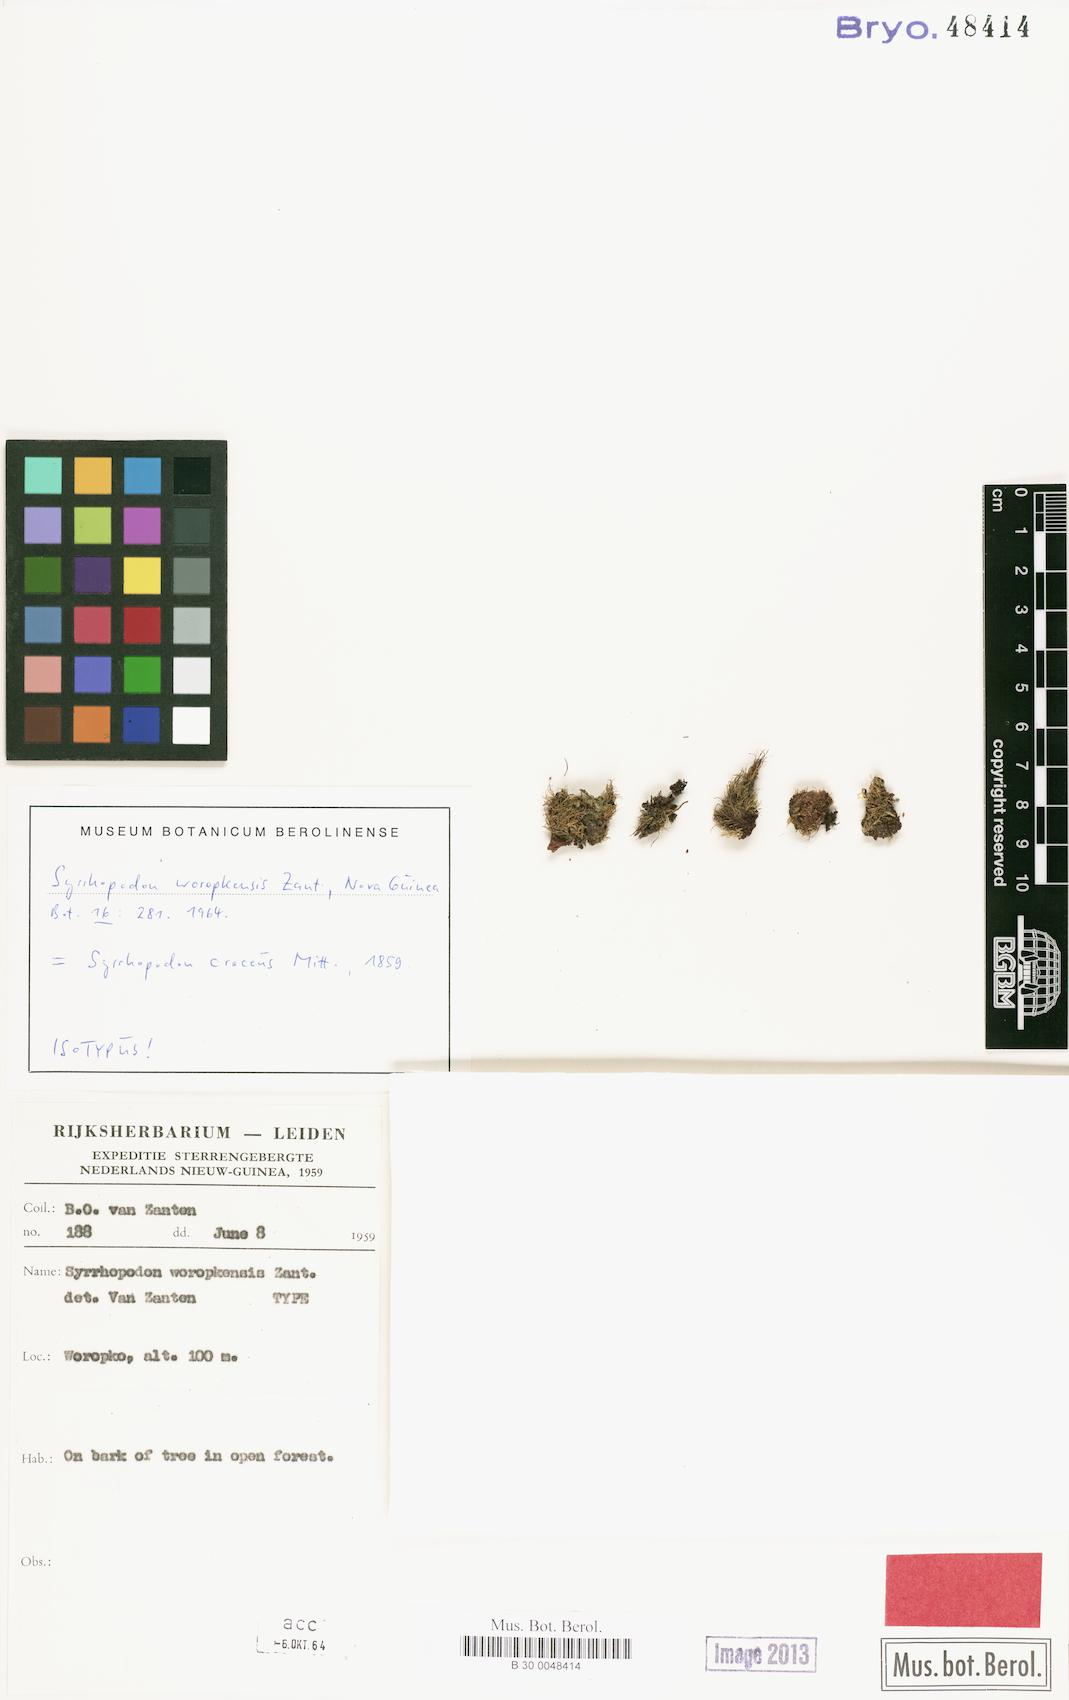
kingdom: Plantae
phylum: Bryophyta
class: Bryopsida
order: Dicranales
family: Calymperaceae
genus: Syrrhopodon
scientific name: Syrrhopodon croceus
